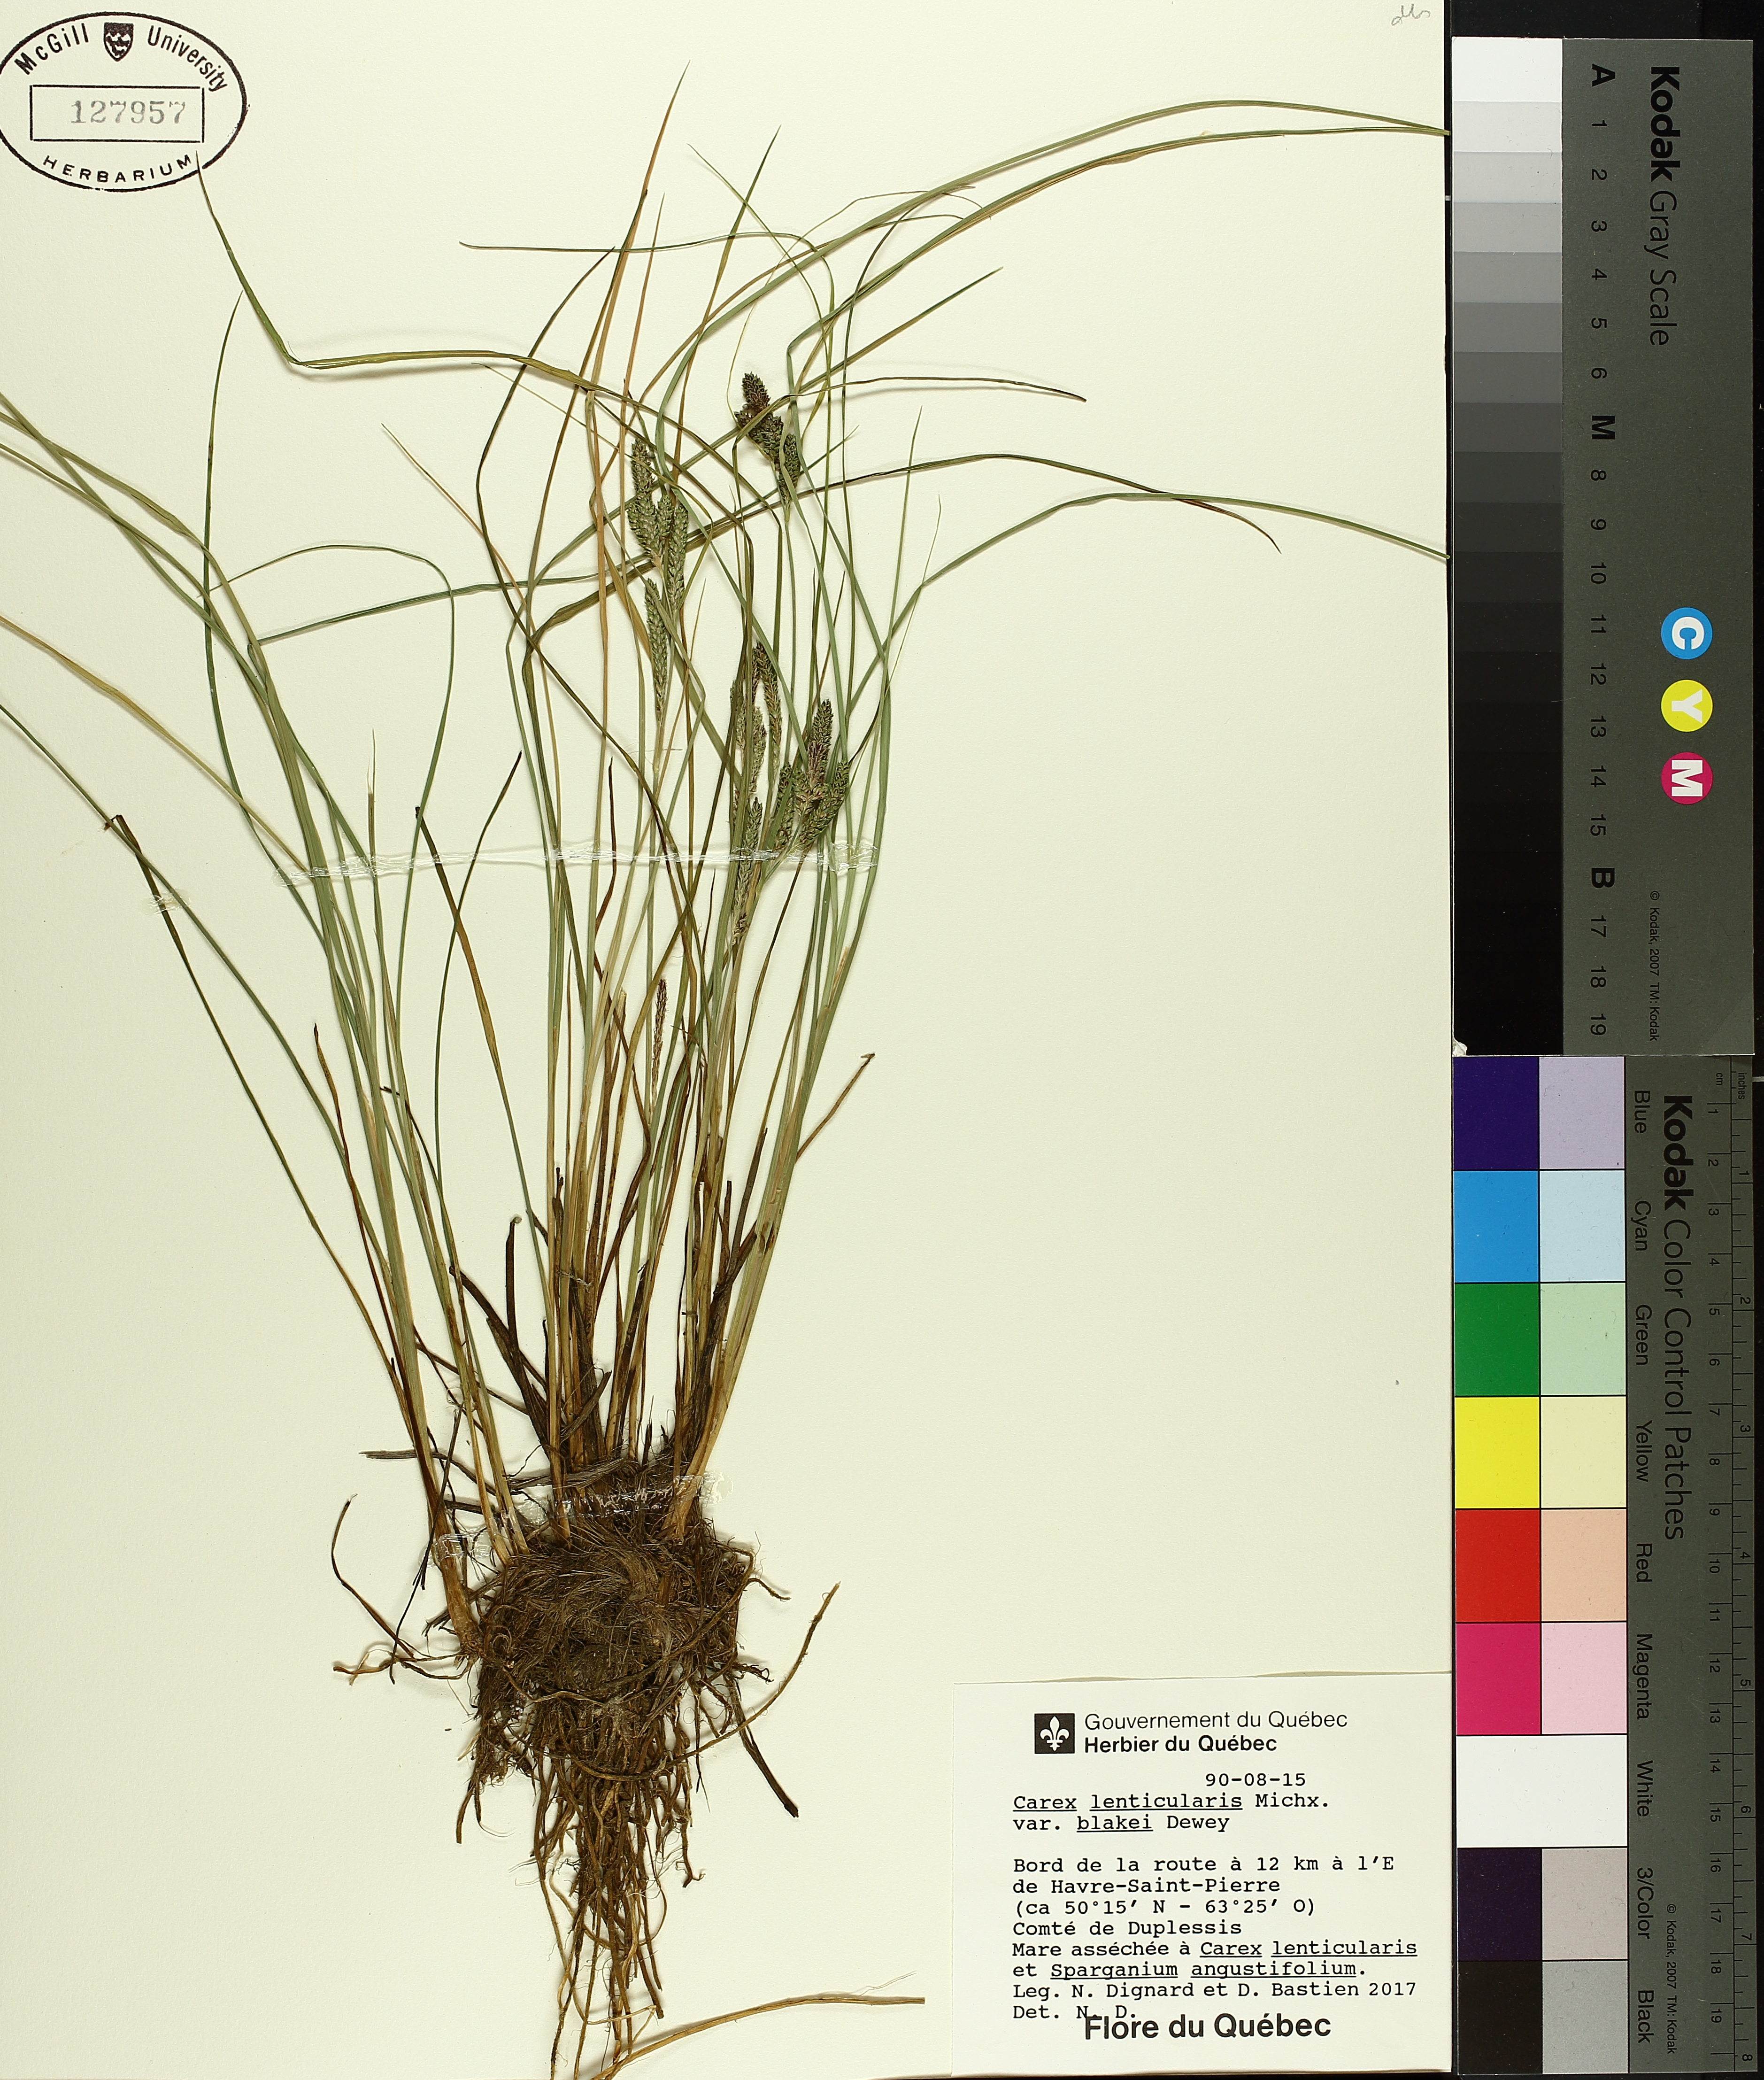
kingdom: Plantae
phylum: Tracheophyta
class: Liliopsida
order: Poales
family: Cyperaceae
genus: Carex
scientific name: Carex lenticularis
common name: Lakeshore sedge
